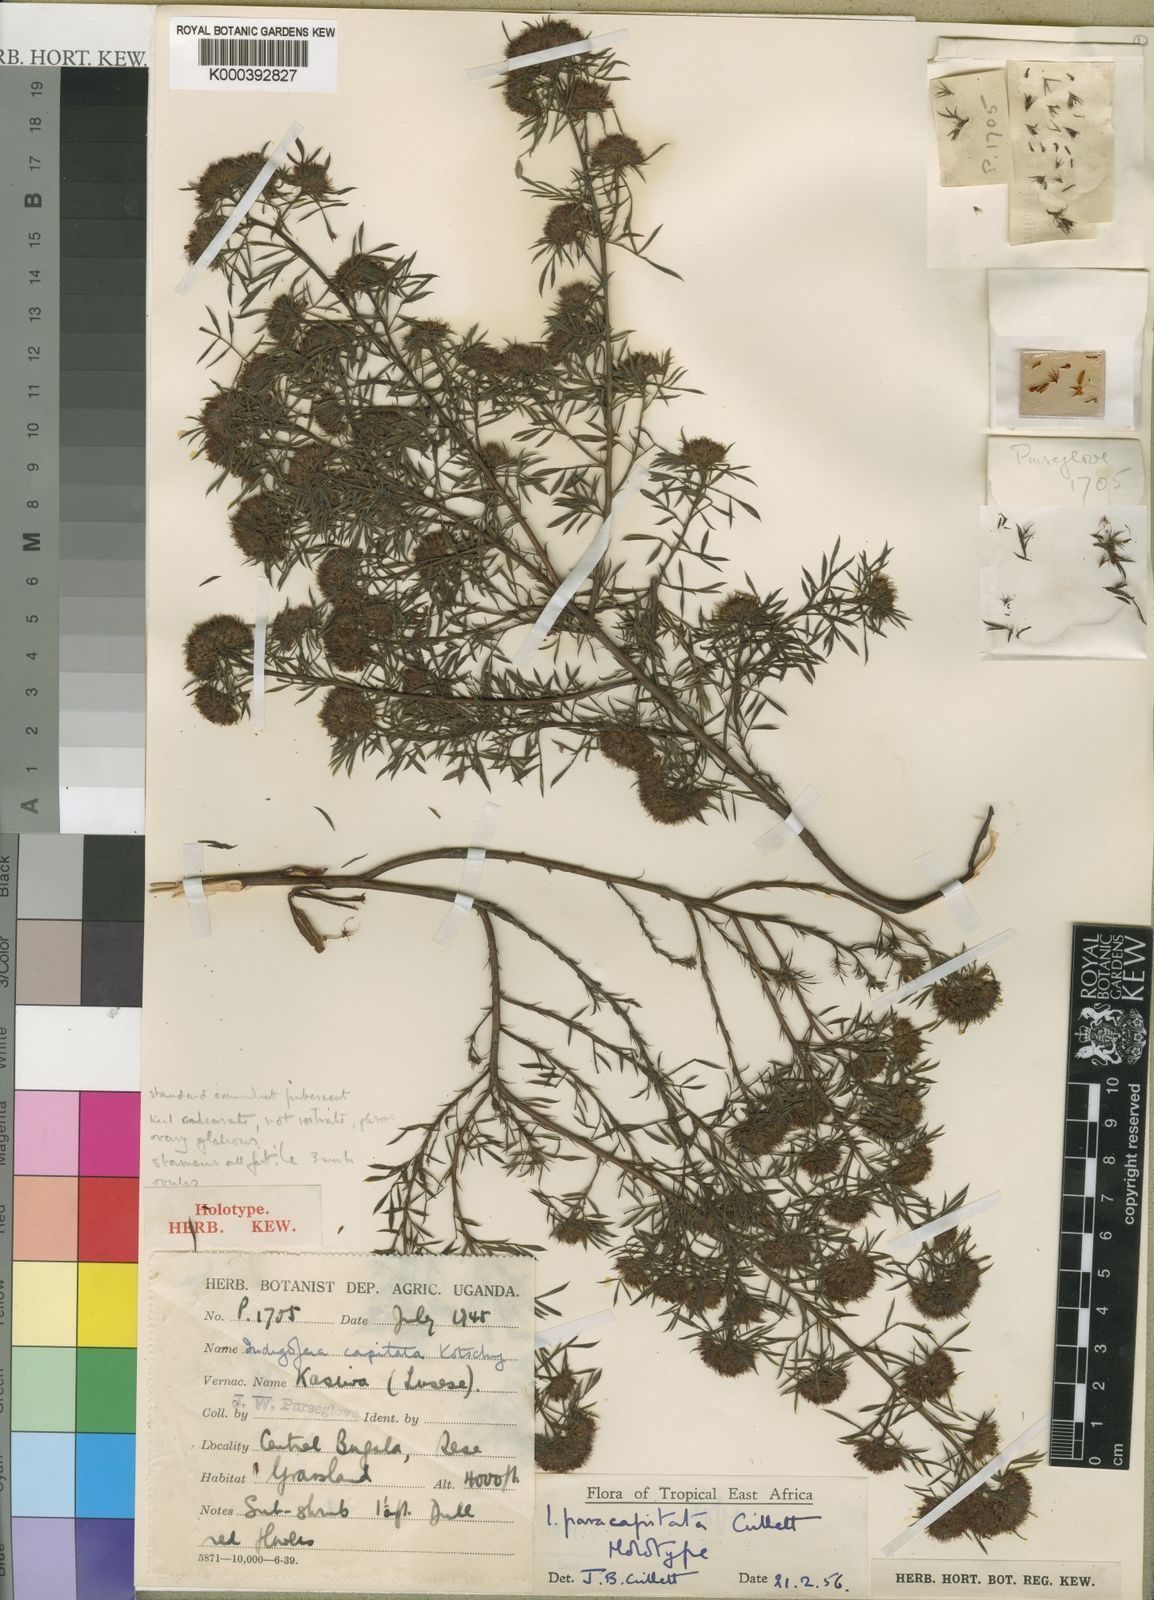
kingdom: Plantae
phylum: Tracheophyta
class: Magnoliopsida
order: Fabales
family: Fabaceae
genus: Indigofera
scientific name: Indigofera paracapitata
